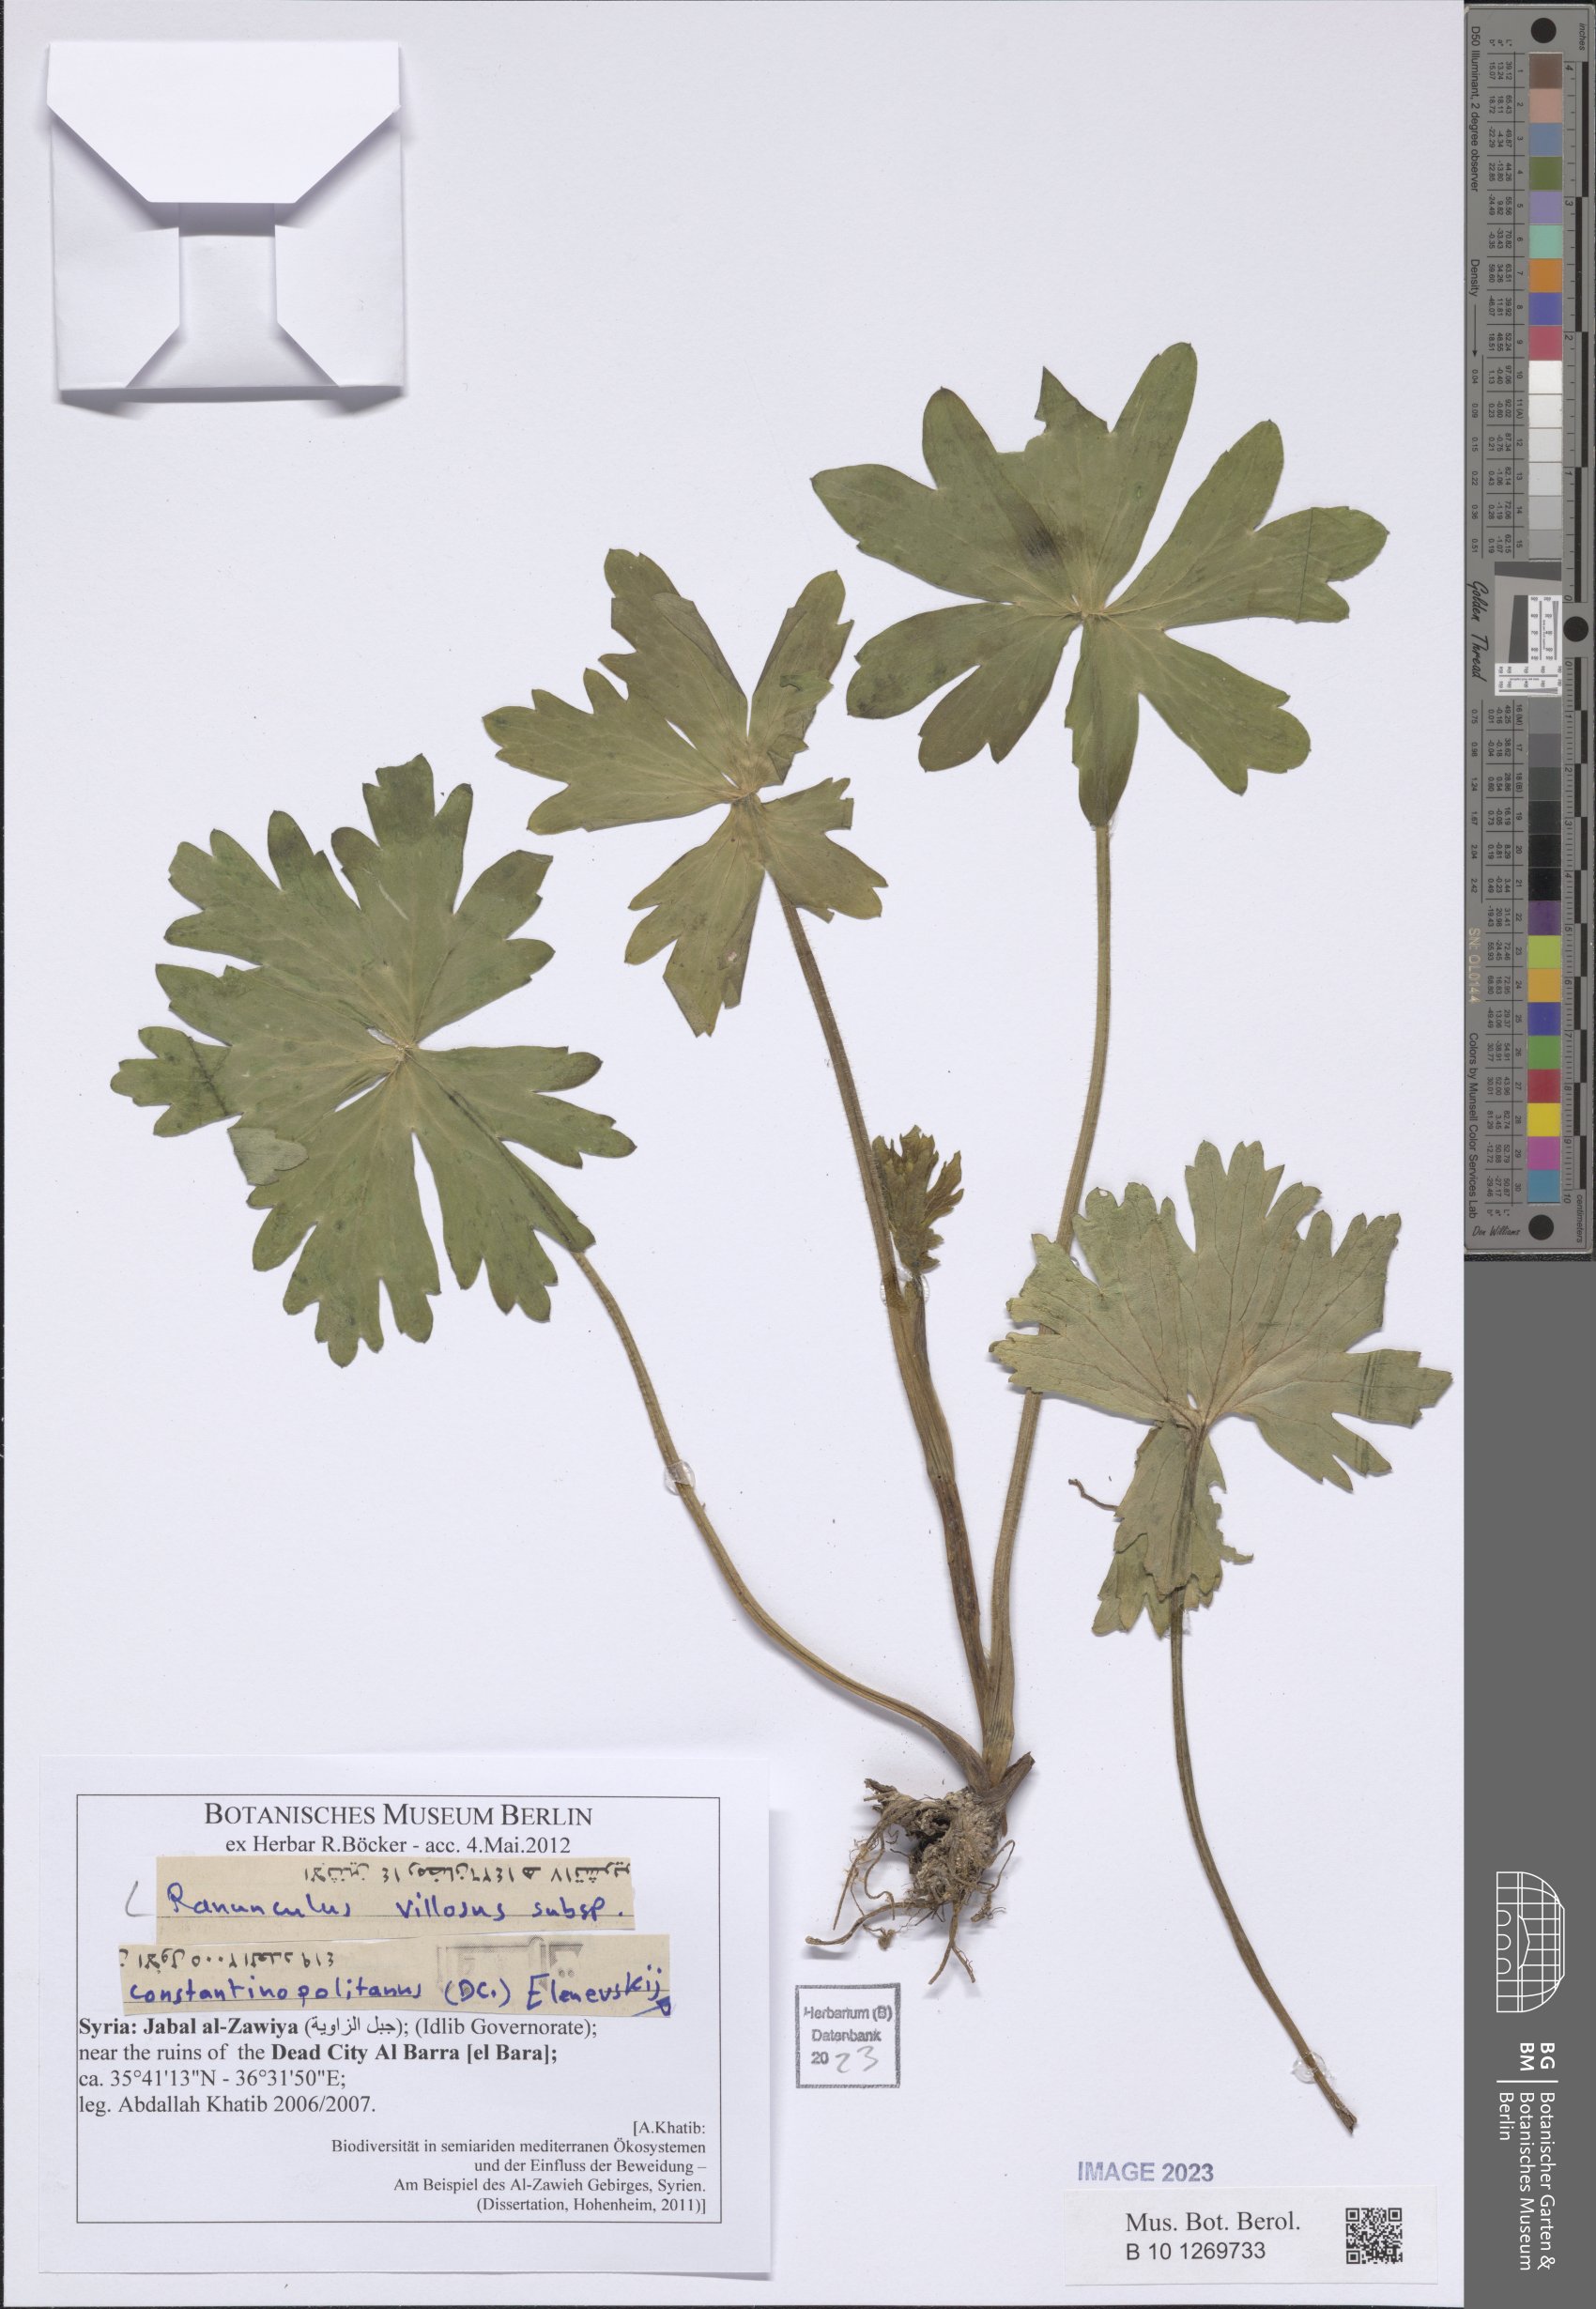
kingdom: Plantae
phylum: Tracheophyta
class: Magnoliopsida
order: Ranunculales
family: Ranunculaceae
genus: Ranunculus
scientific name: Ranunculus constantinopolitanus
